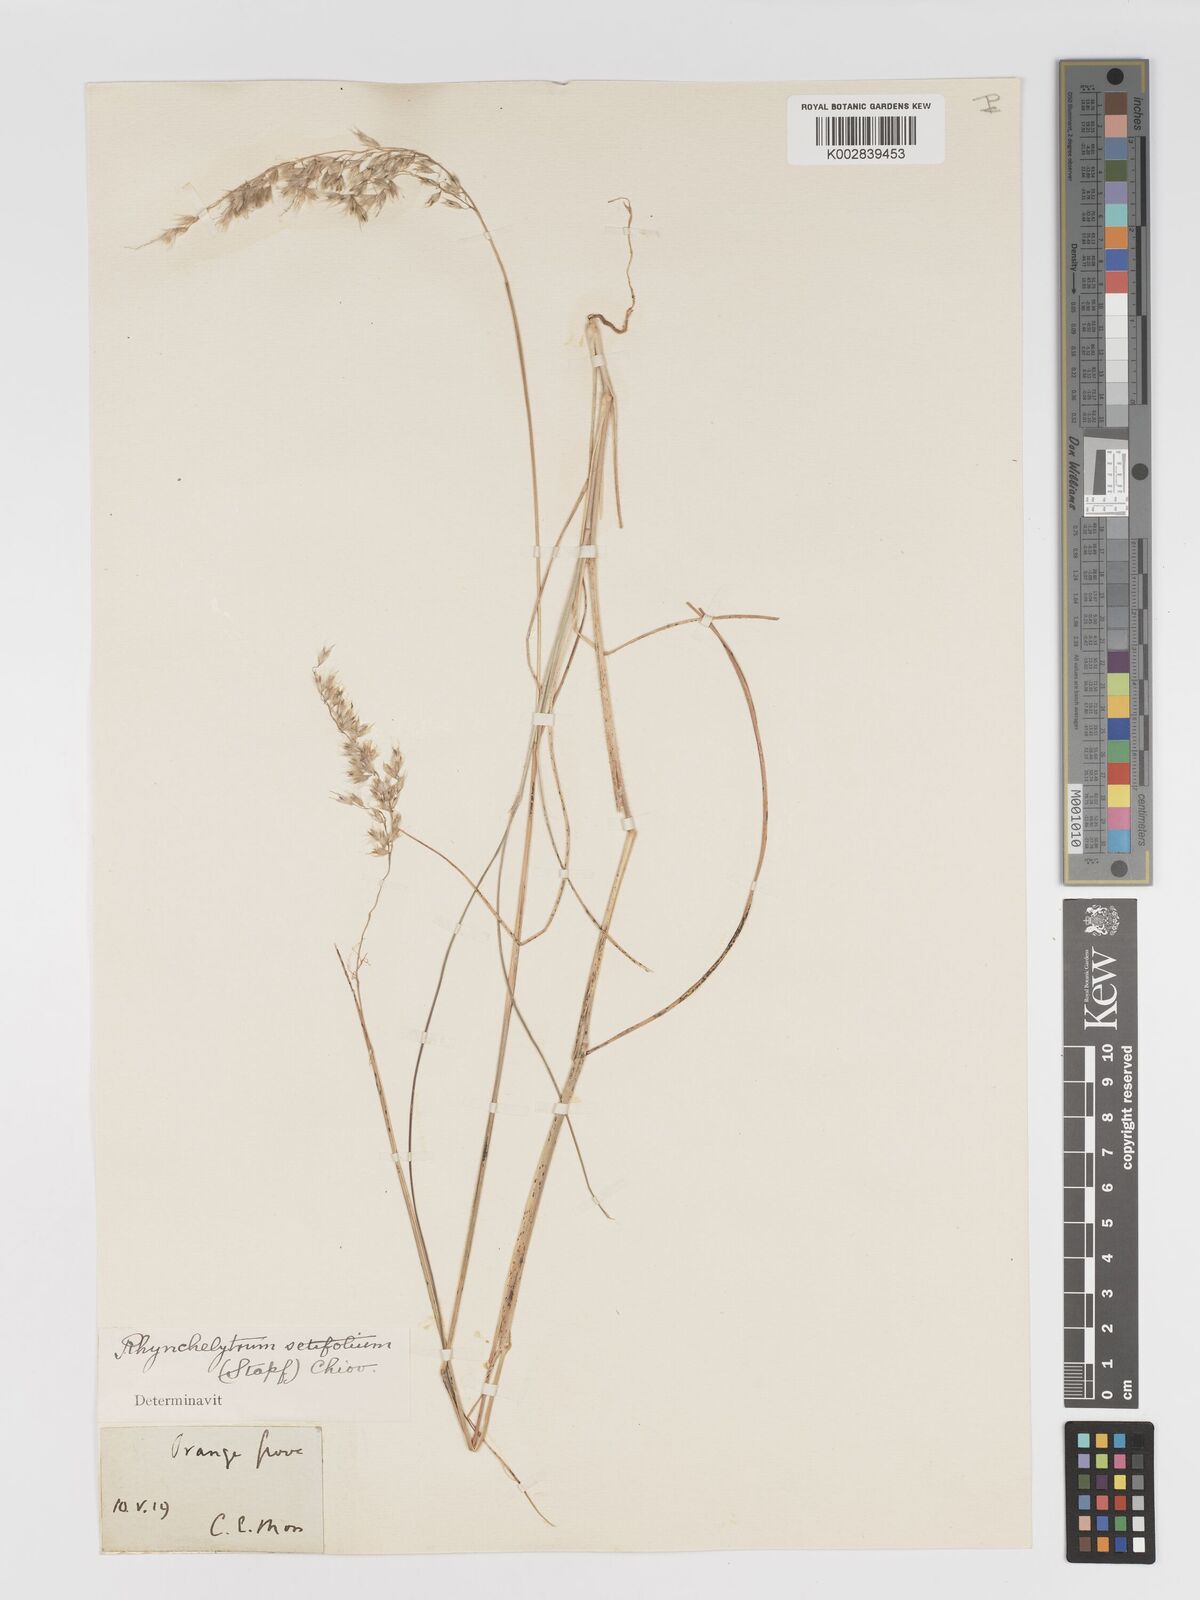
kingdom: Plantae
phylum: Tracheophyta
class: Liliopsida
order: Poales
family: Poaceae
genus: Melinis
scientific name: Melinis nerviglumis
